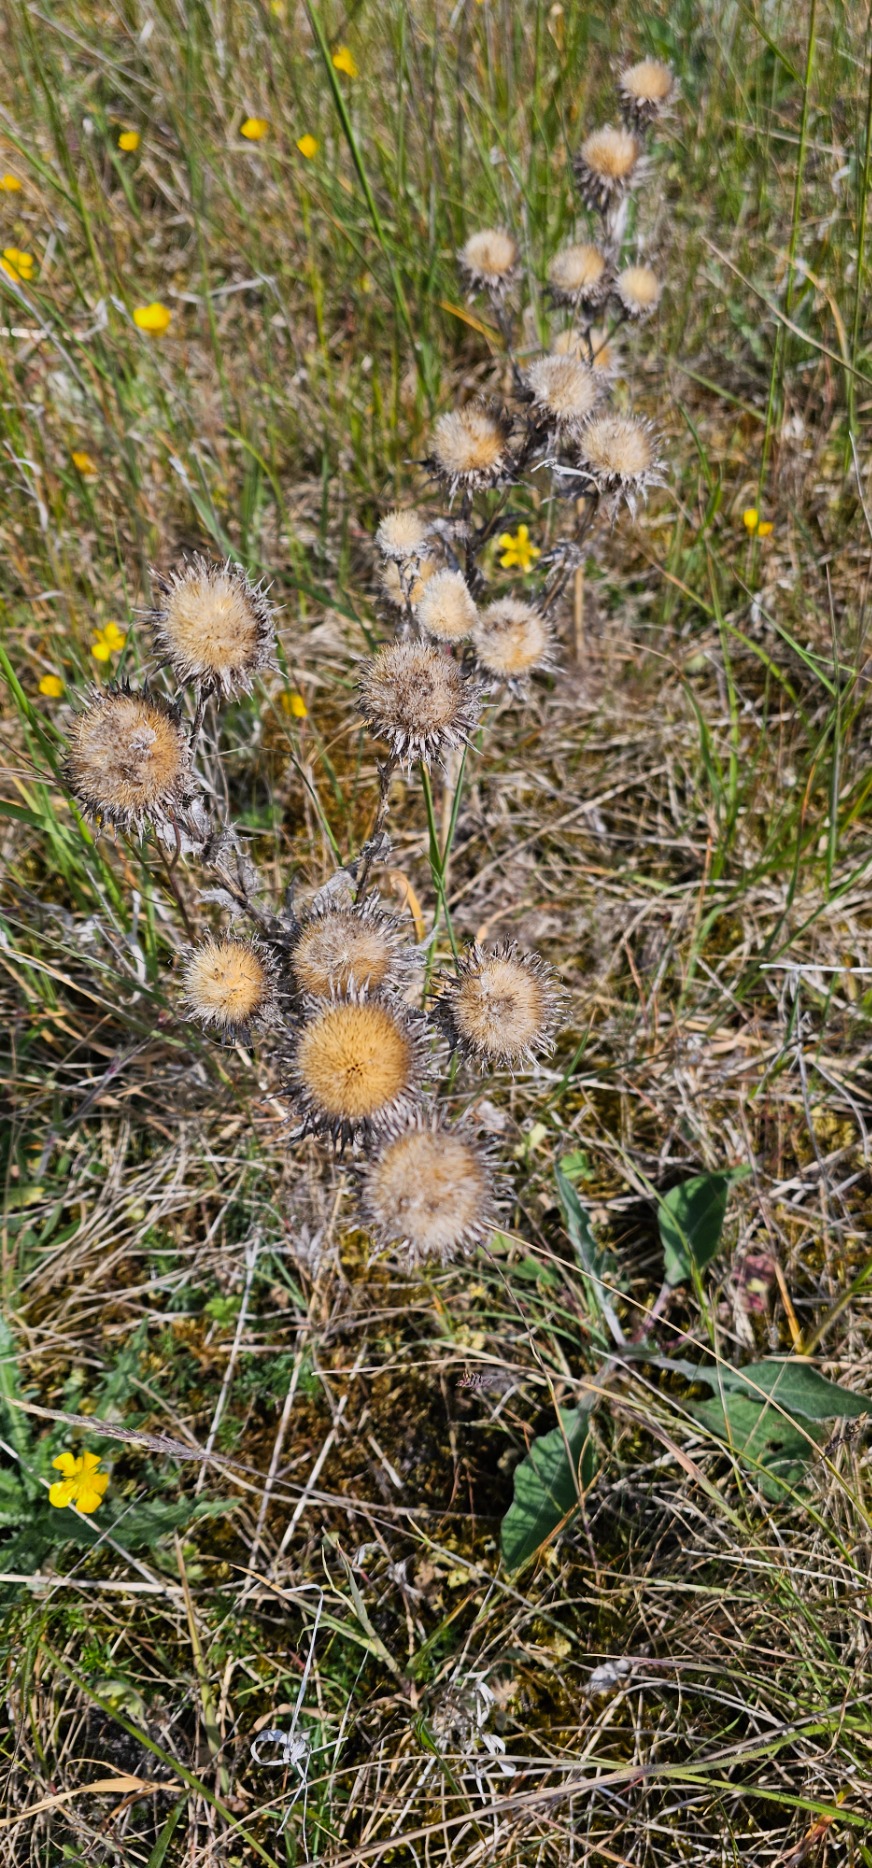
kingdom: Plantae
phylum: Tracheophyta
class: Magnoliopsida
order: Asterales
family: Asteraceae
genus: Carlina
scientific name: Carlina vulgaris
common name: Bakketidsel
